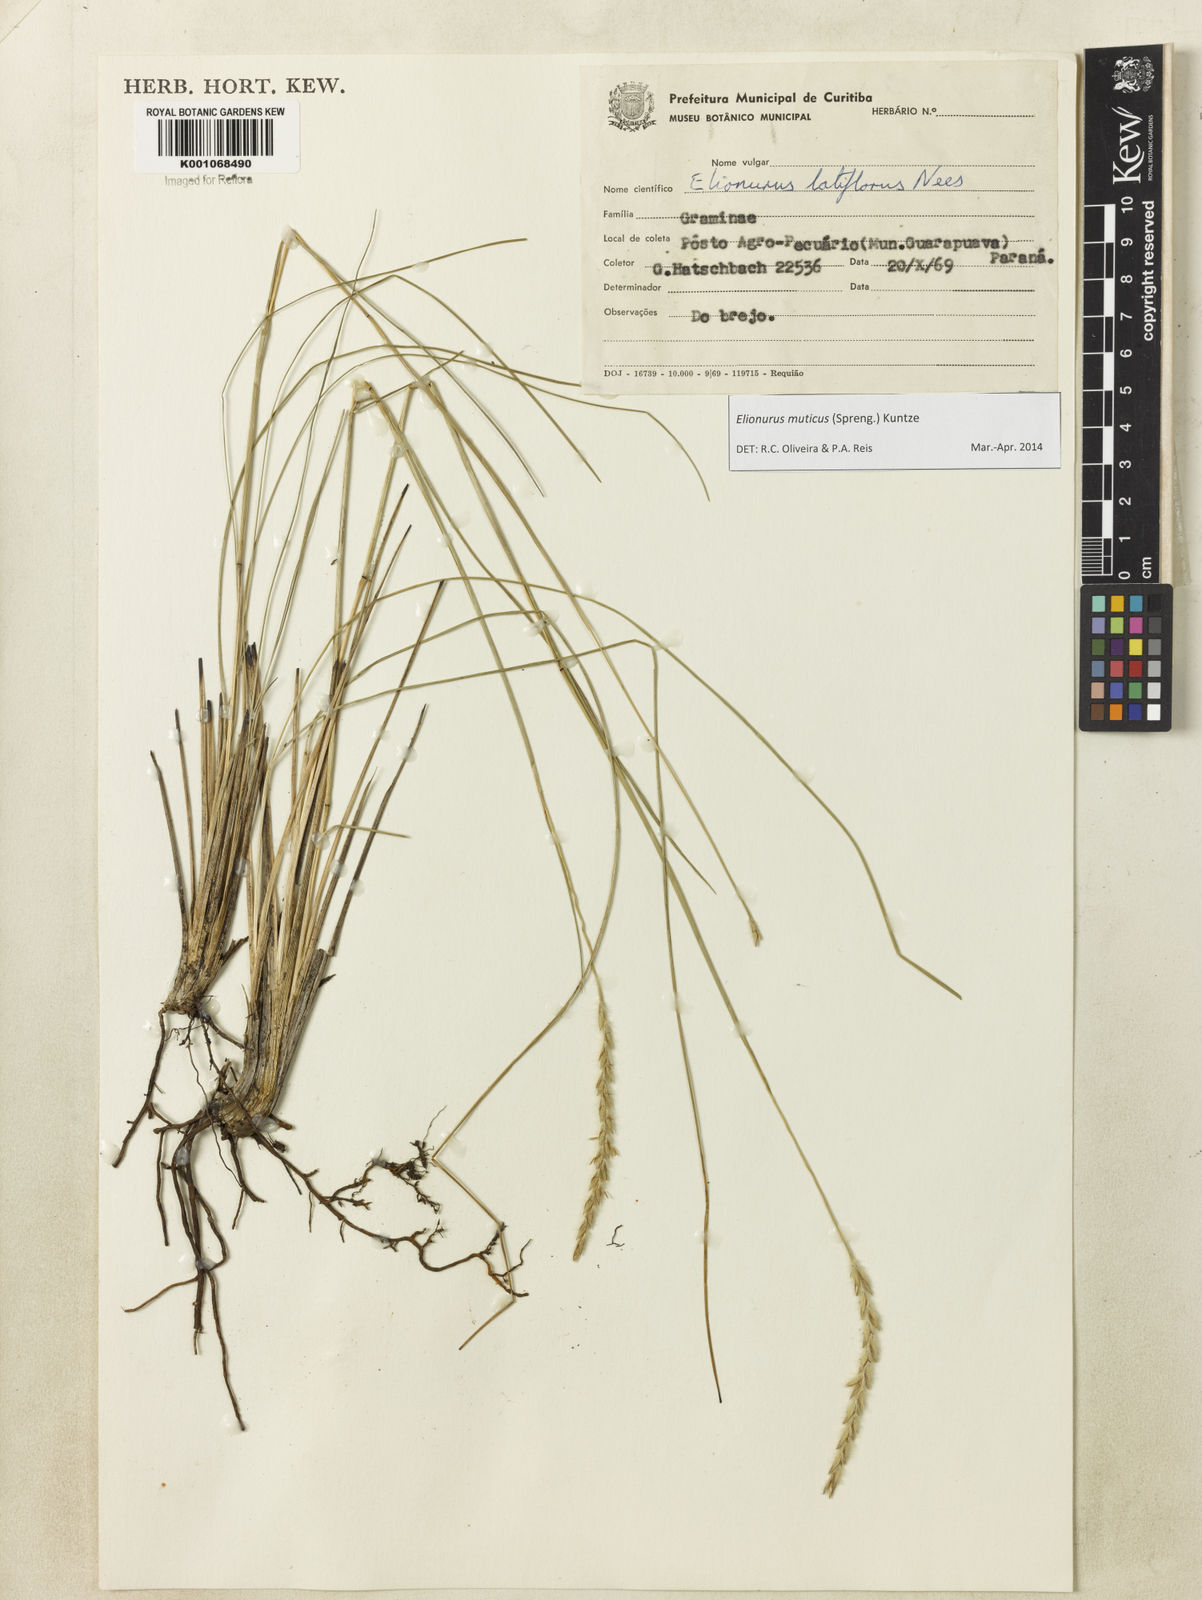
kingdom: Plantae
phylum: Tracheophyta
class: Liliopsida
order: Poales
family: Poaceae
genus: Elionurus
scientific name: Elionurus muticus
